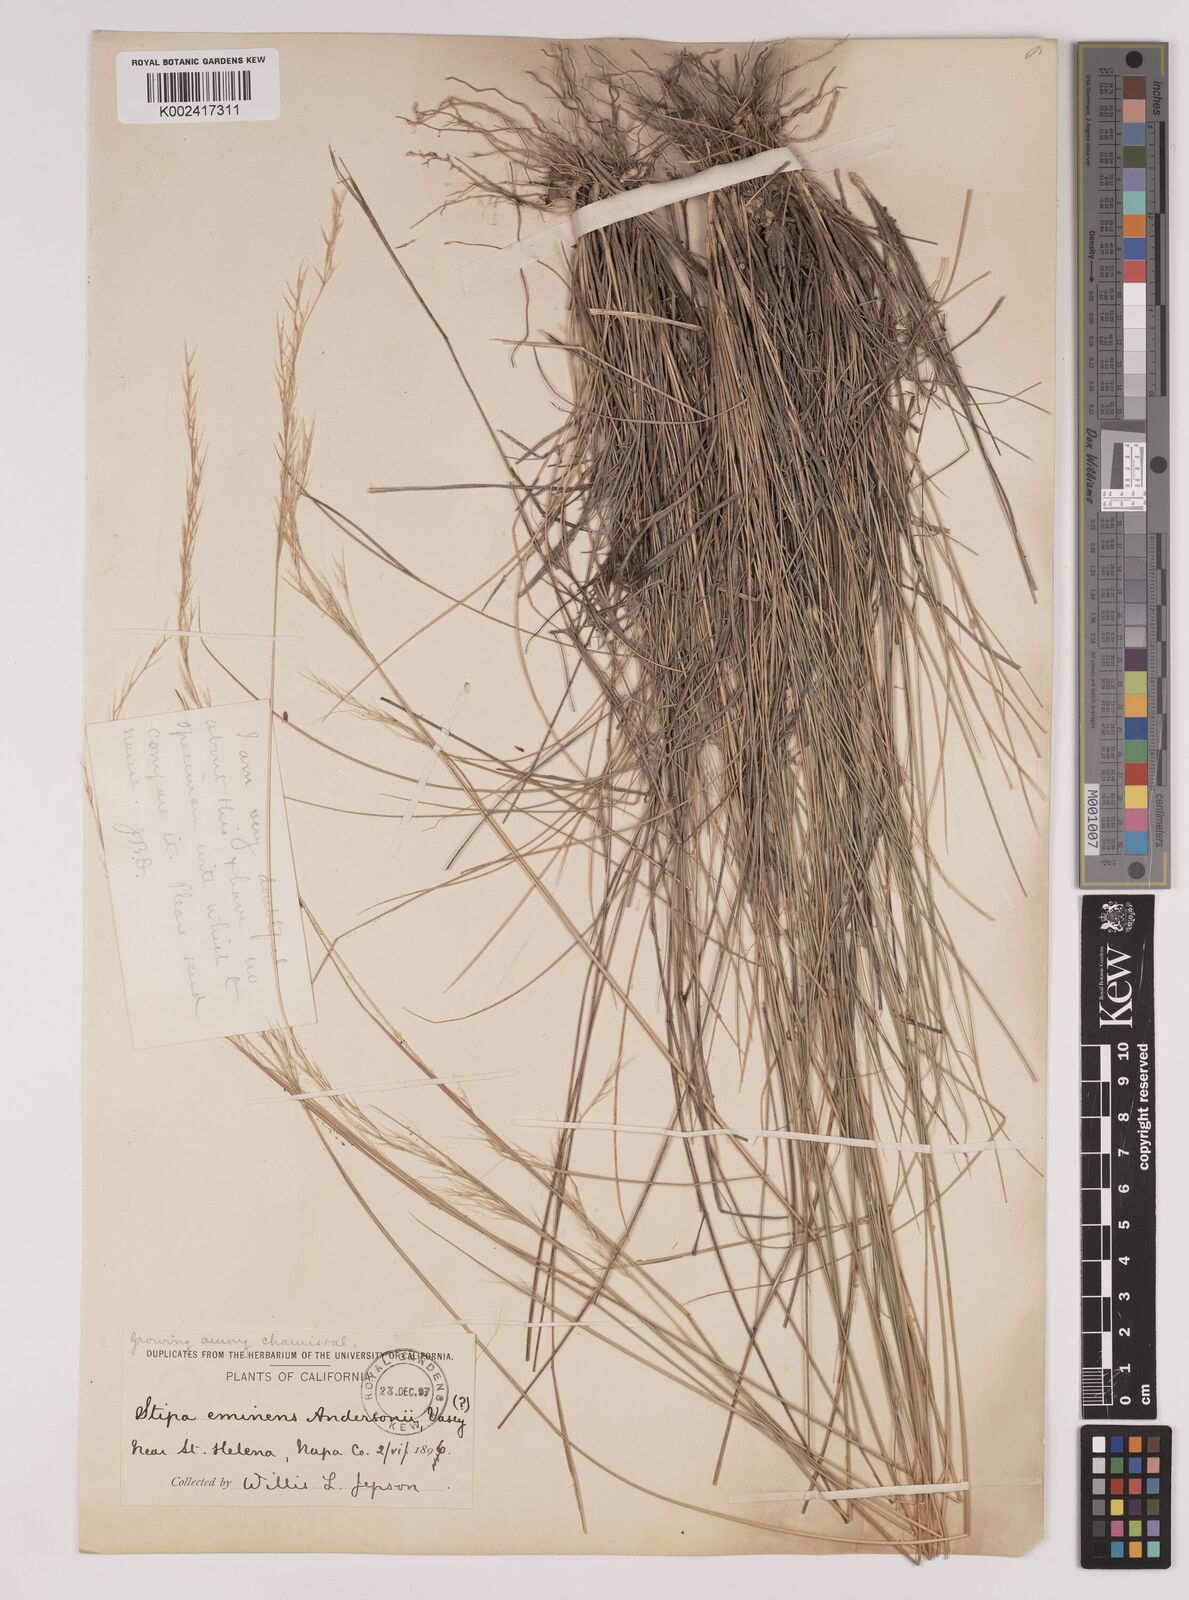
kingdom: Plantae
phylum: Tracheophyta
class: Liliopsida
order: Poales
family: Poaceae
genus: Nassella
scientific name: Nassella lepida
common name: Foothill needlegrass
